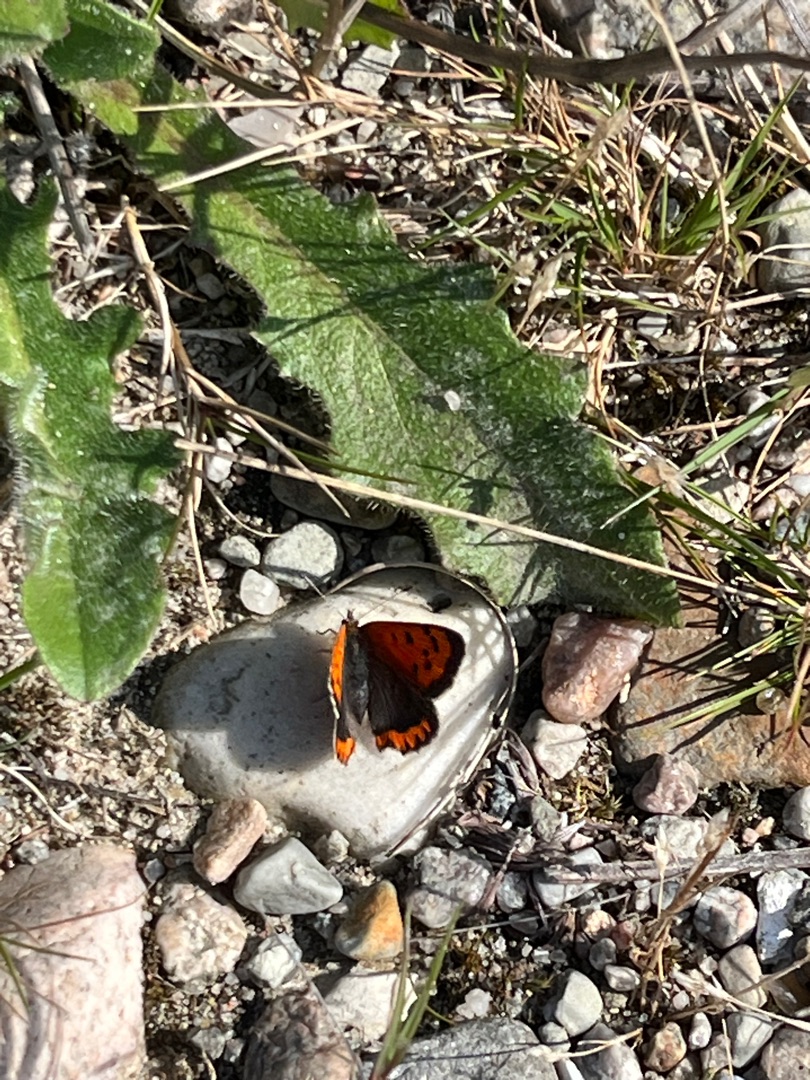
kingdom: Animalia
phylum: Arthropoda
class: Insecta
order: Lepidoptera
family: Lycaenidae
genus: Lycaena
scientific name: Lycaena phlaeas
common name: Lille ildfugl
